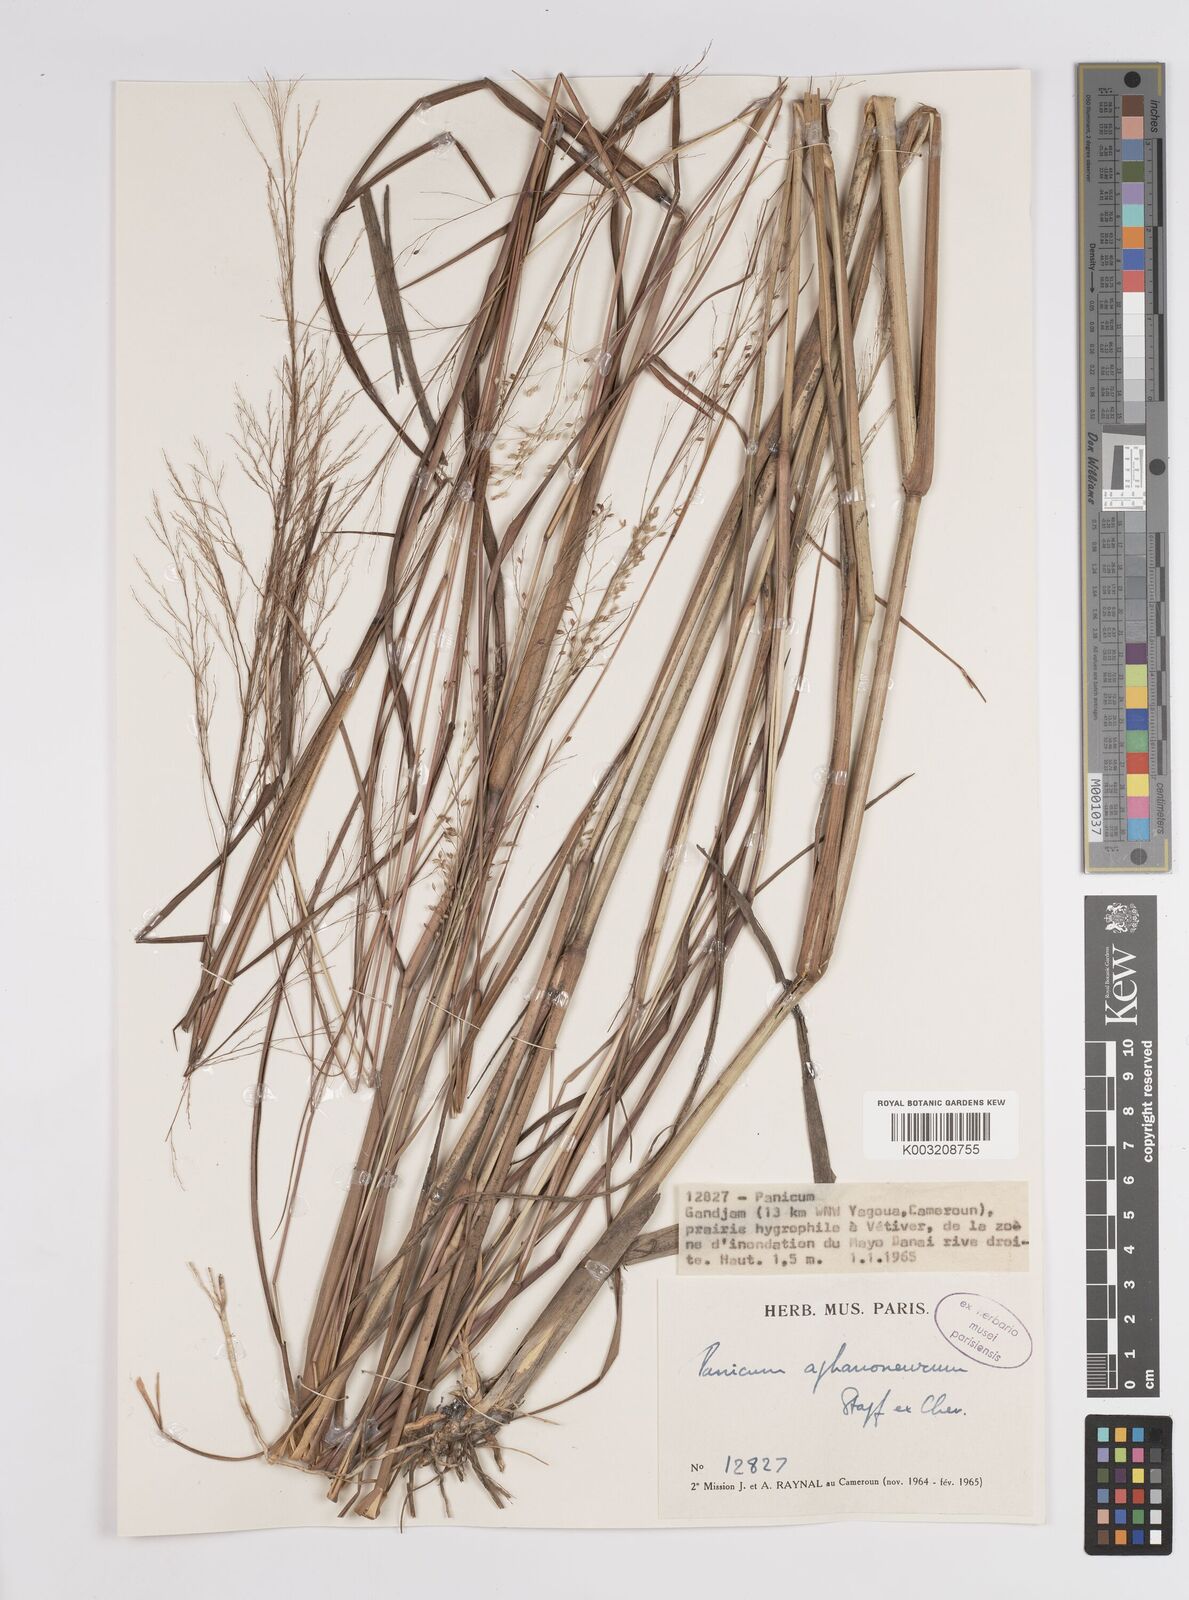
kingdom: Plantae
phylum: Tracheophyta
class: Liliopsida
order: Poales
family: Poaceae
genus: Panicum
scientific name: Panicum fluviicola
